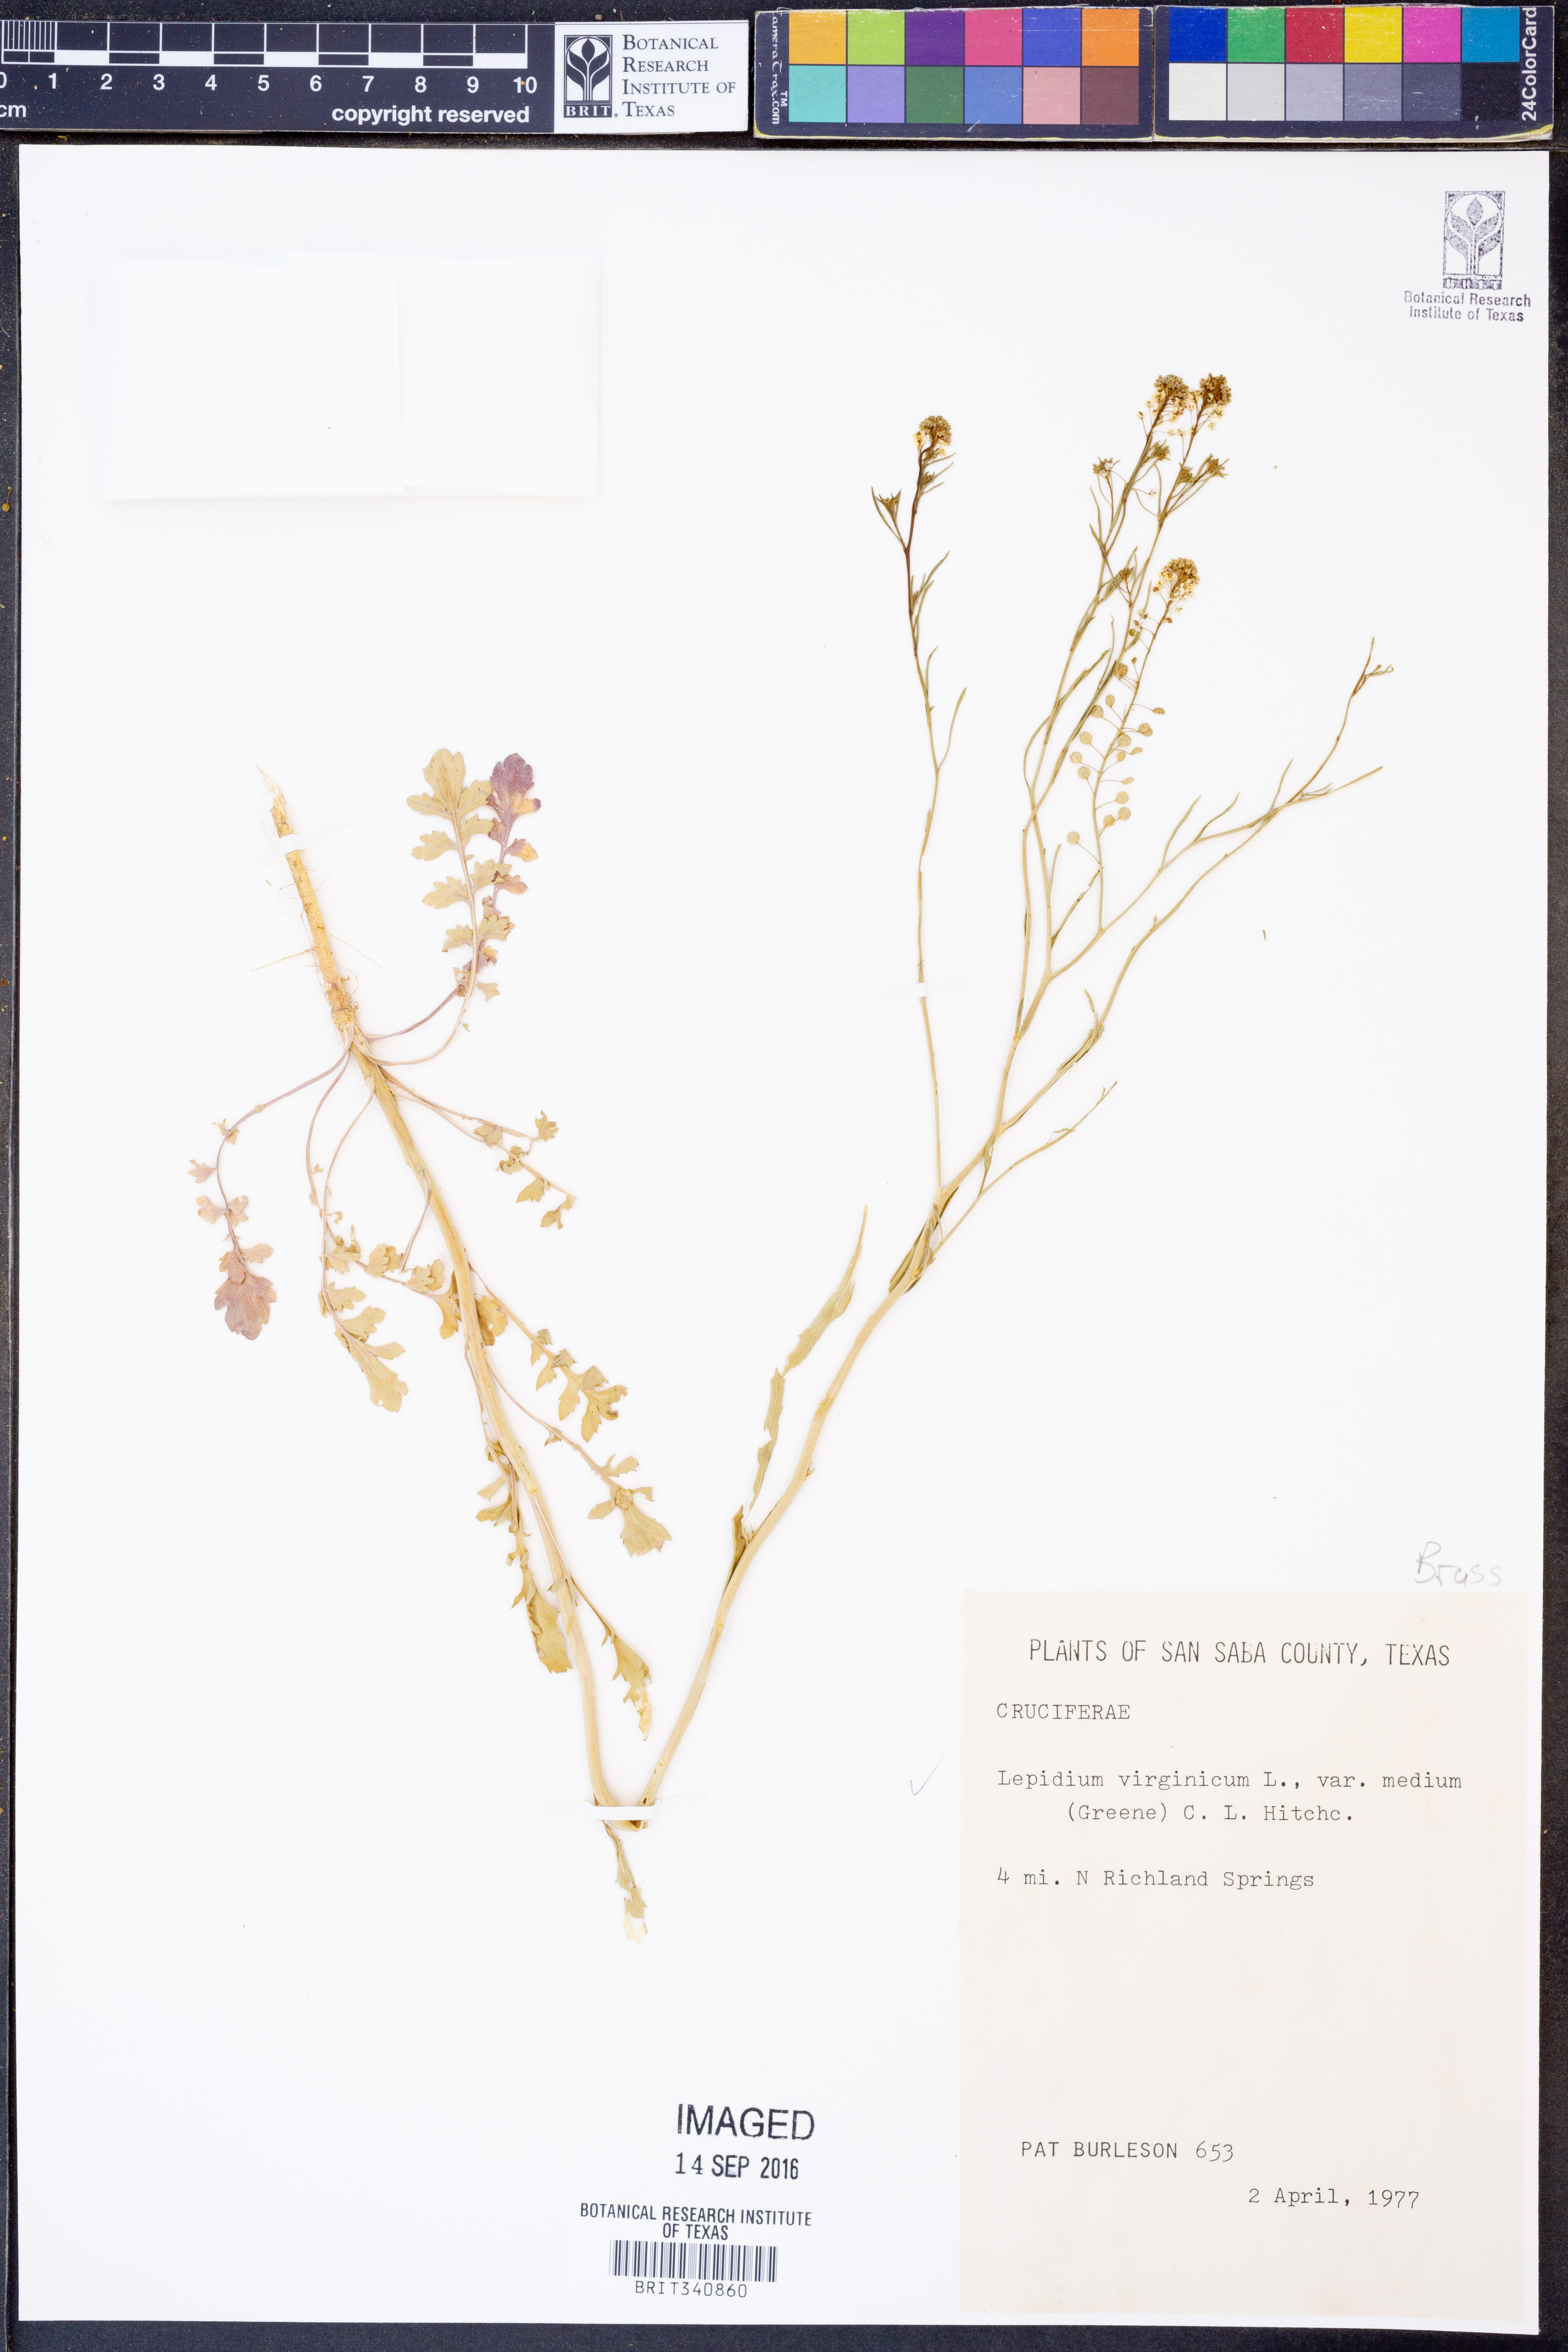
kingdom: Plantae
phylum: Tracheophyta
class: Magnoliopsida
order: Brassicales
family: Brassicaceae
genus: Lepidium
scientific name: Lepidium virginicum
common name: Least pepperwort
